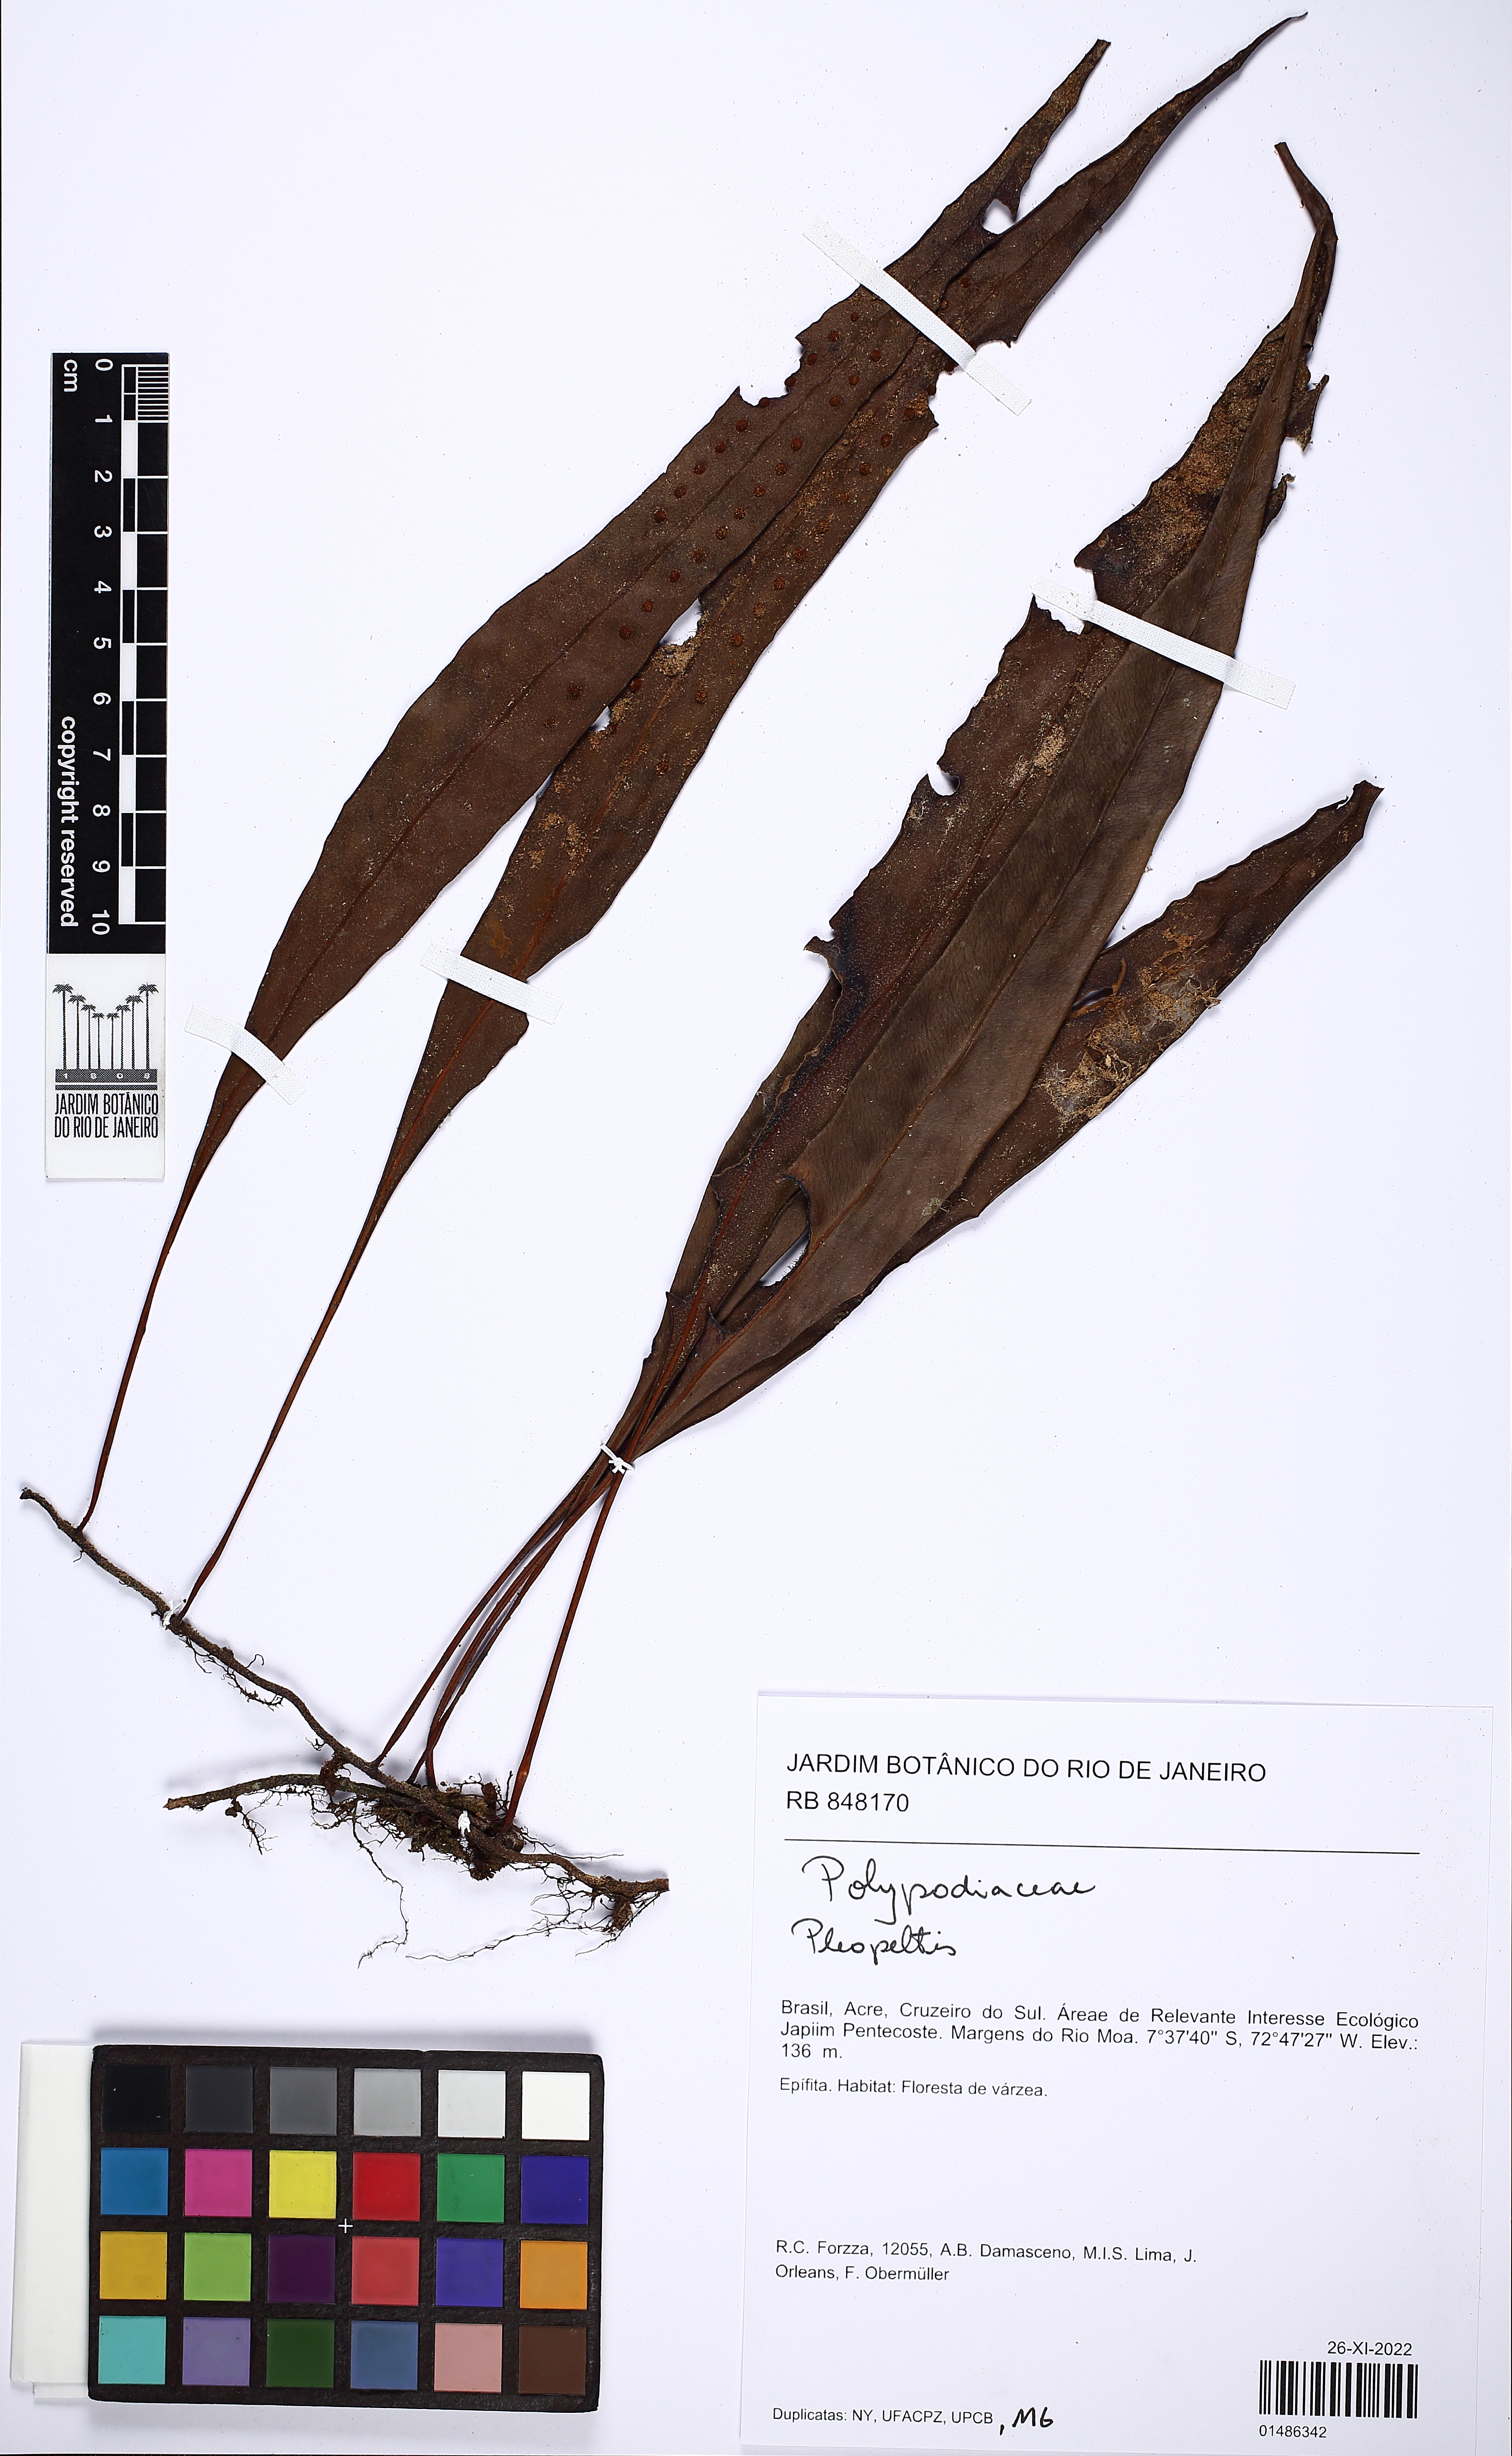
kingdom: Plantae
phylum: Tracheophyta
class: Polypodiopsida
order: Polypodiales
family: Polypodiaceae
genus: Pleopeltis
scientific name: Pleopeltis
